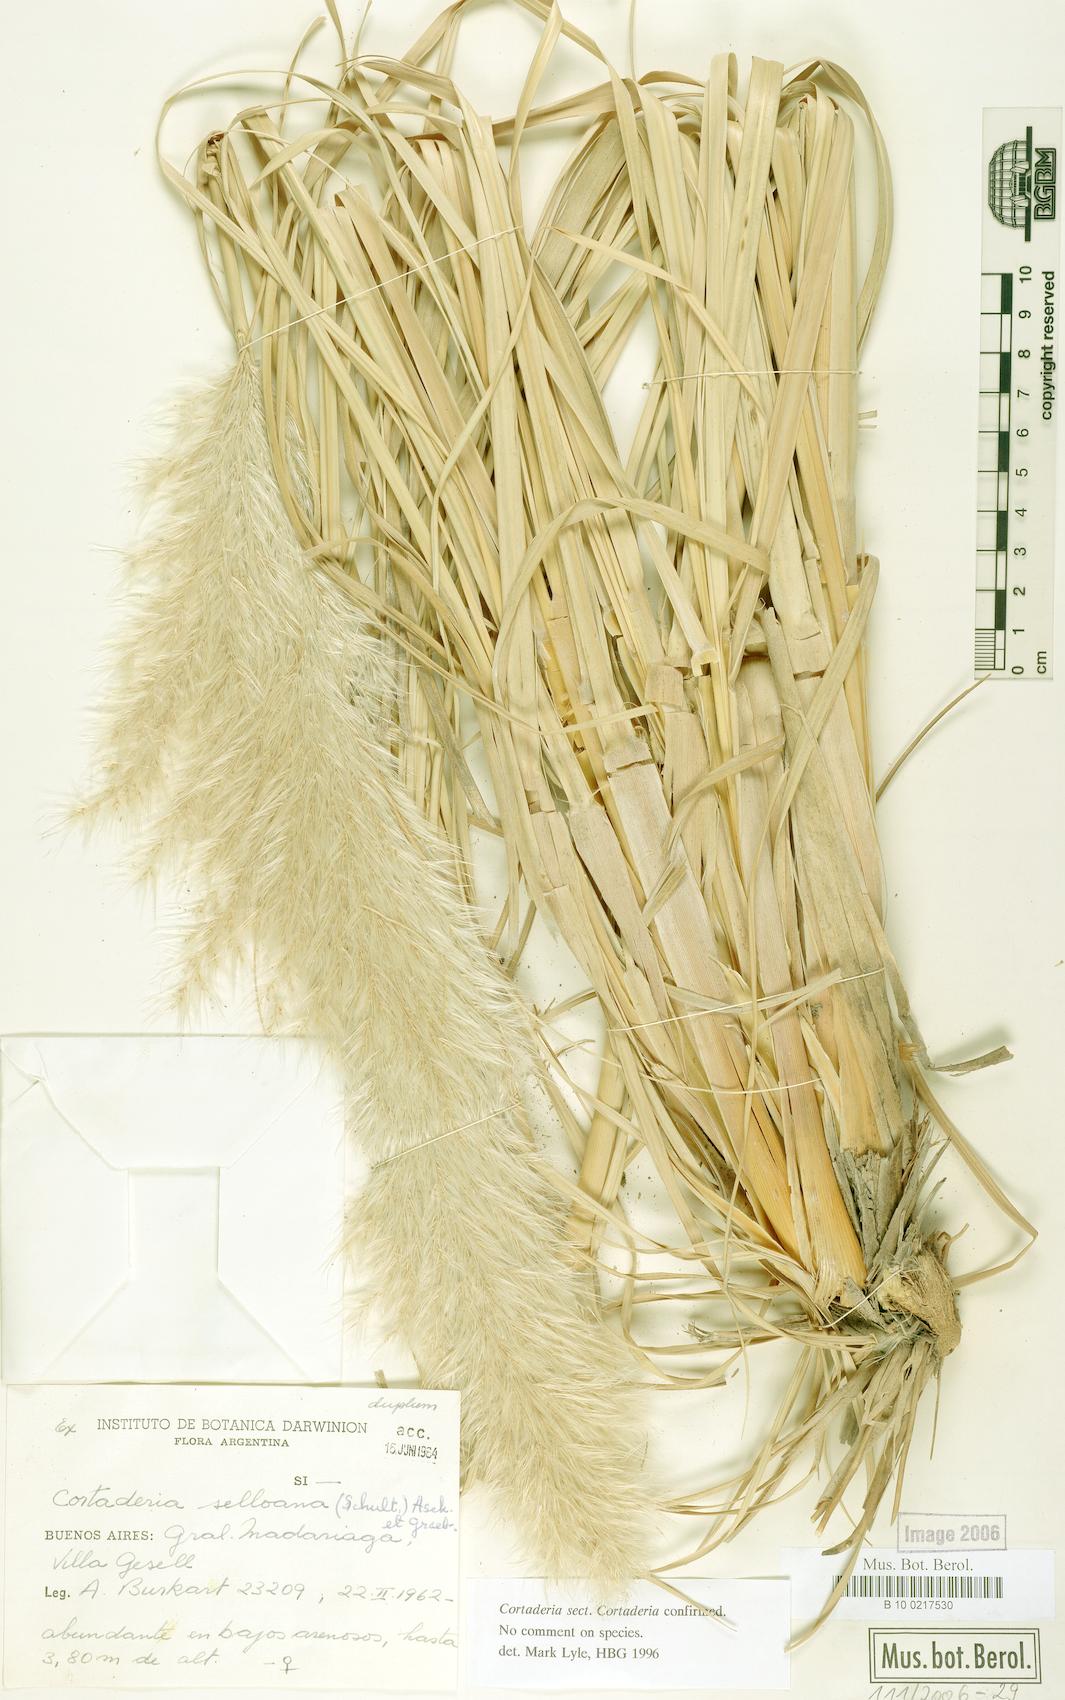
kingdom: Plantae
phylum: Tracheophyta
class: Liliopsida
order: Poales
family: Poaceae
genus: Cortaderia
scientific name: Cortaderia selloana
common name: Uruguayan pampas grass
